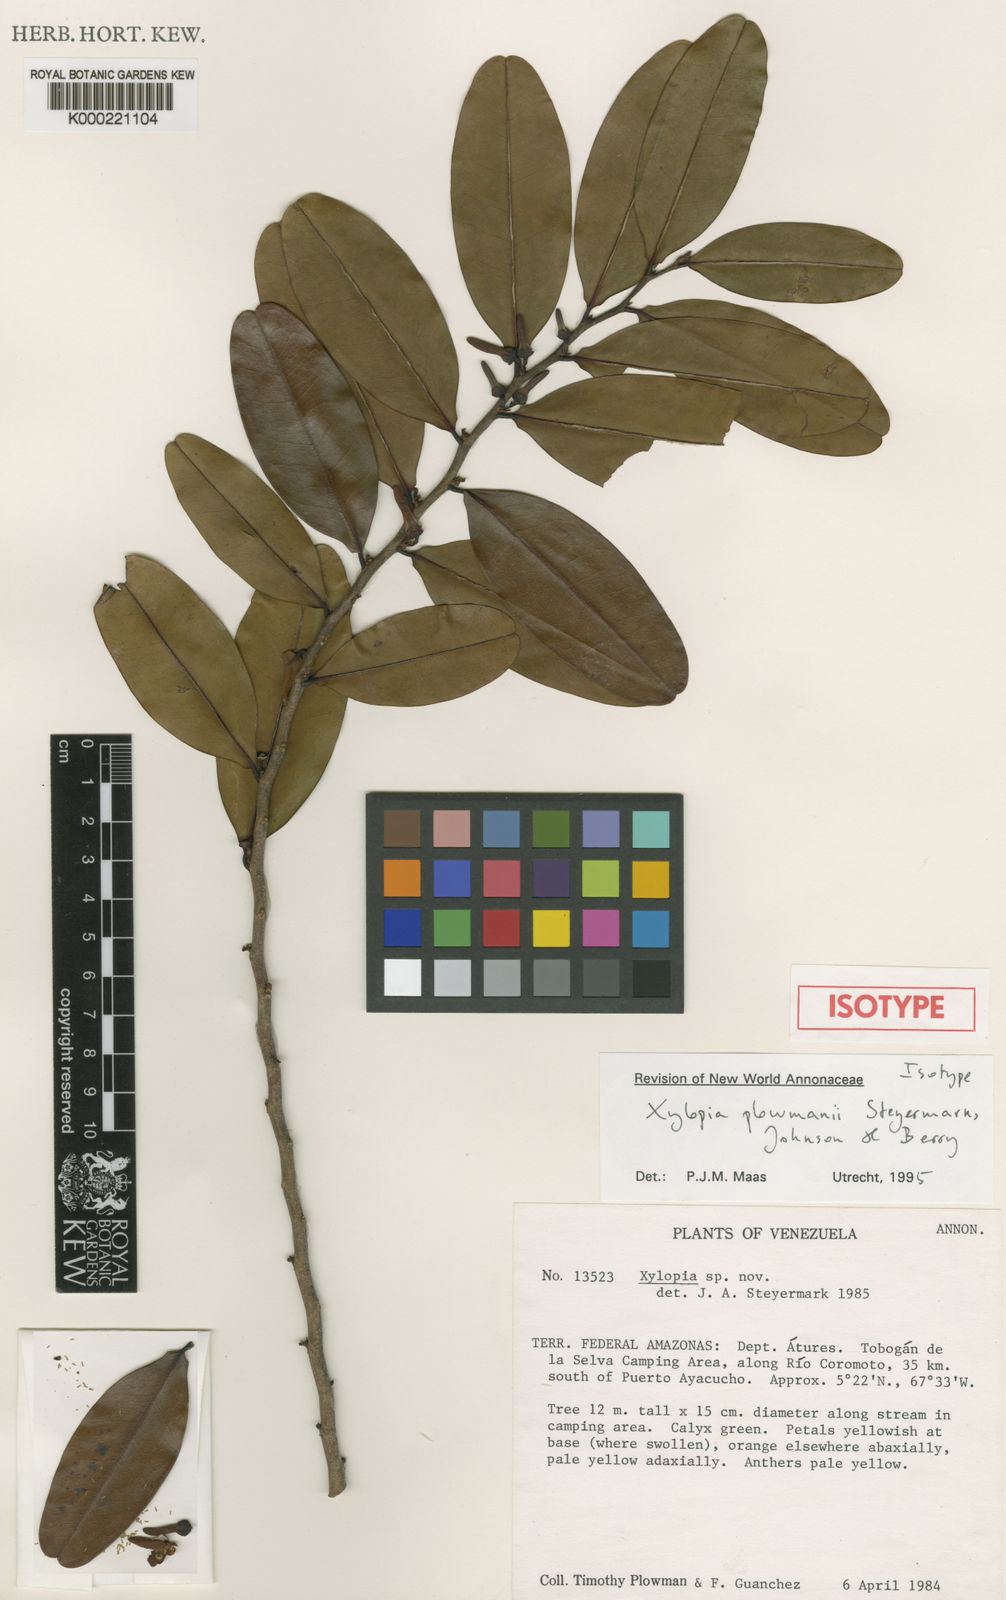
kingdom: Plantae
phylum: Tracheophyta
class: Magnoliopsida
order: Magnoliales
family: Annonaceae
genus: Xylopia
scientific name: Xylopia plowmanii
